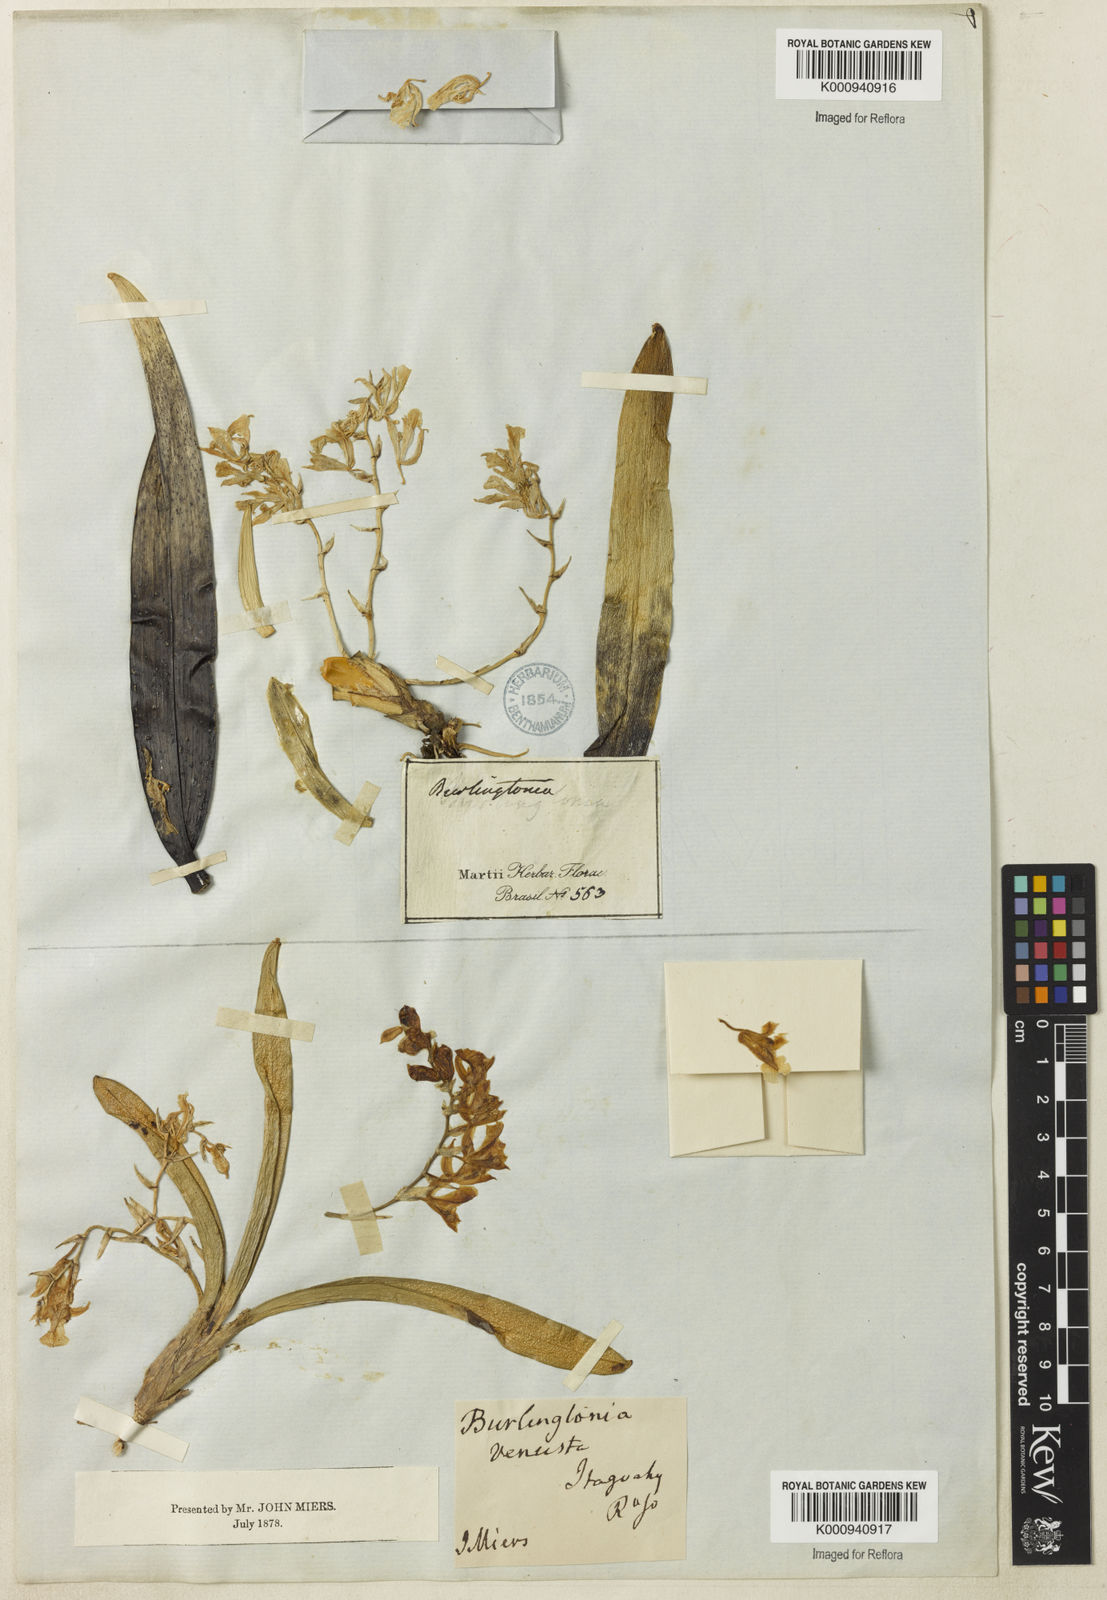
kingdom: Plantae
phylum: Tracheophyta
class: Liliopsida
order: Asparagales
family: Orchidaceae
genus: Rodriguezia
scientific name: Rodriguezia bracteata
